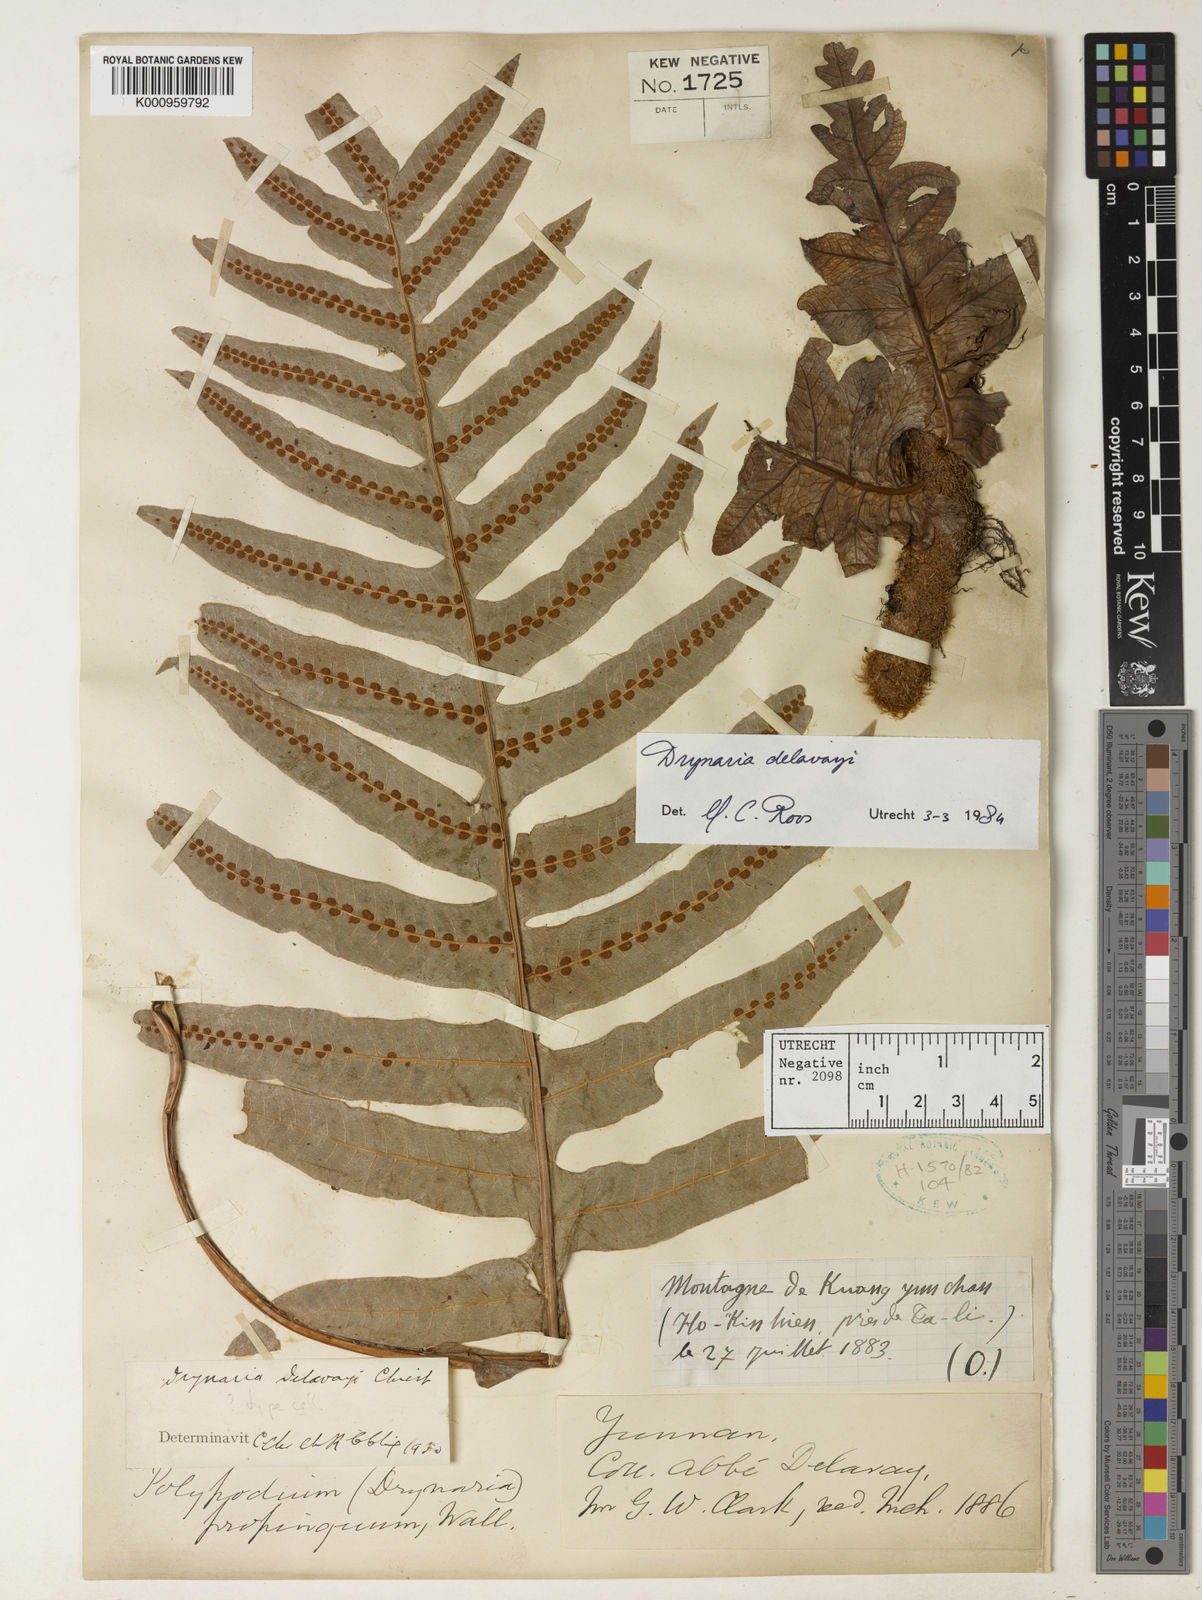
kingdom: Plantae
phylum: Tracheophyta
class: Polypodiopsida
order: Polypodiales
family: Polypodiaceae
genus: Drynaria
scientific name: Drynaria delavayi
